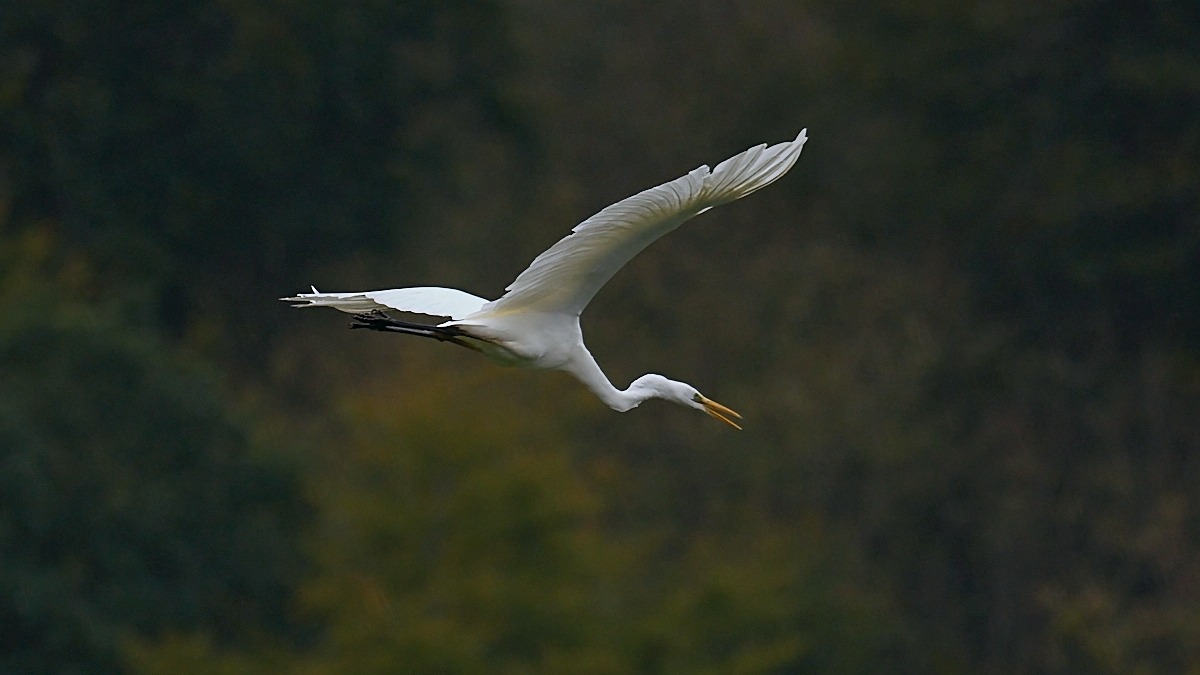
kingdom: Animalia
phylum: Chordata
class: Aves
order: Pelecaniformes
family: Ardeidae
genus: Ardea
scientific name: Ardea alba
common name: Sølvhejre
